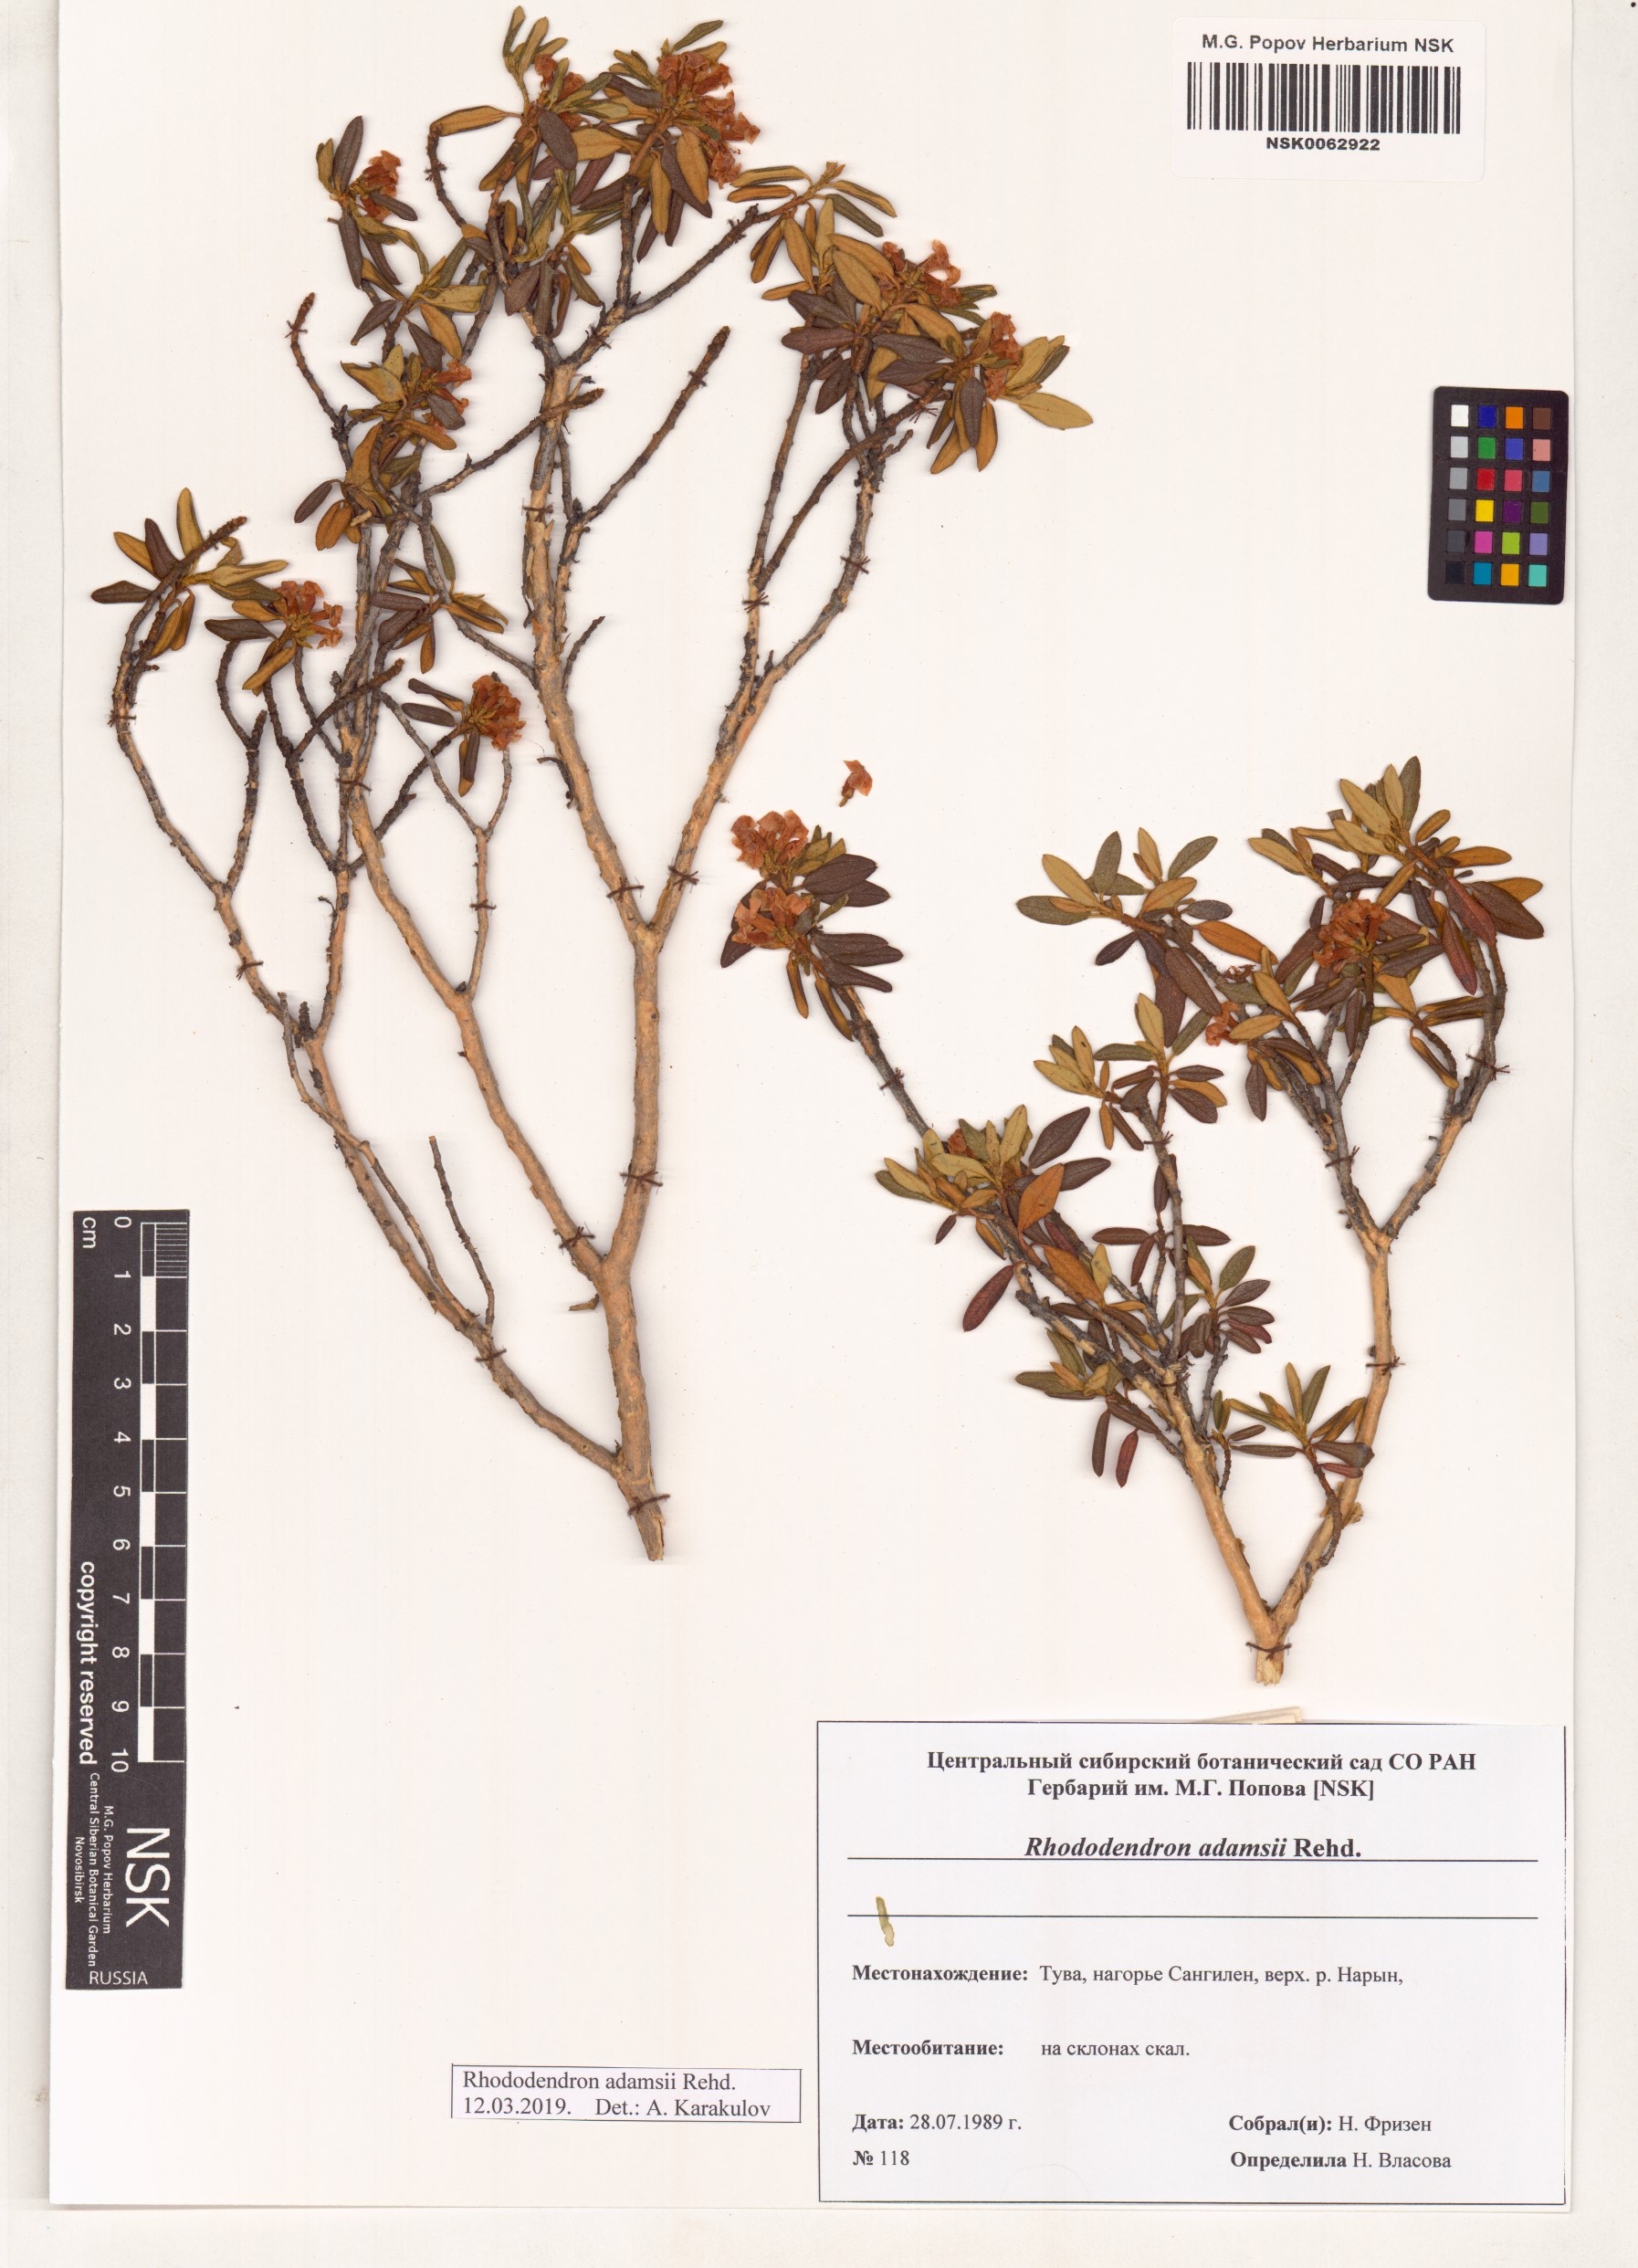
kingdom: Plantae
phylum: Tracheophyta
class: Magnoliopsida
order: Ericales
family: Ericaceae
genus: Rhododendron
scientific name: Rhododendron adamsii
